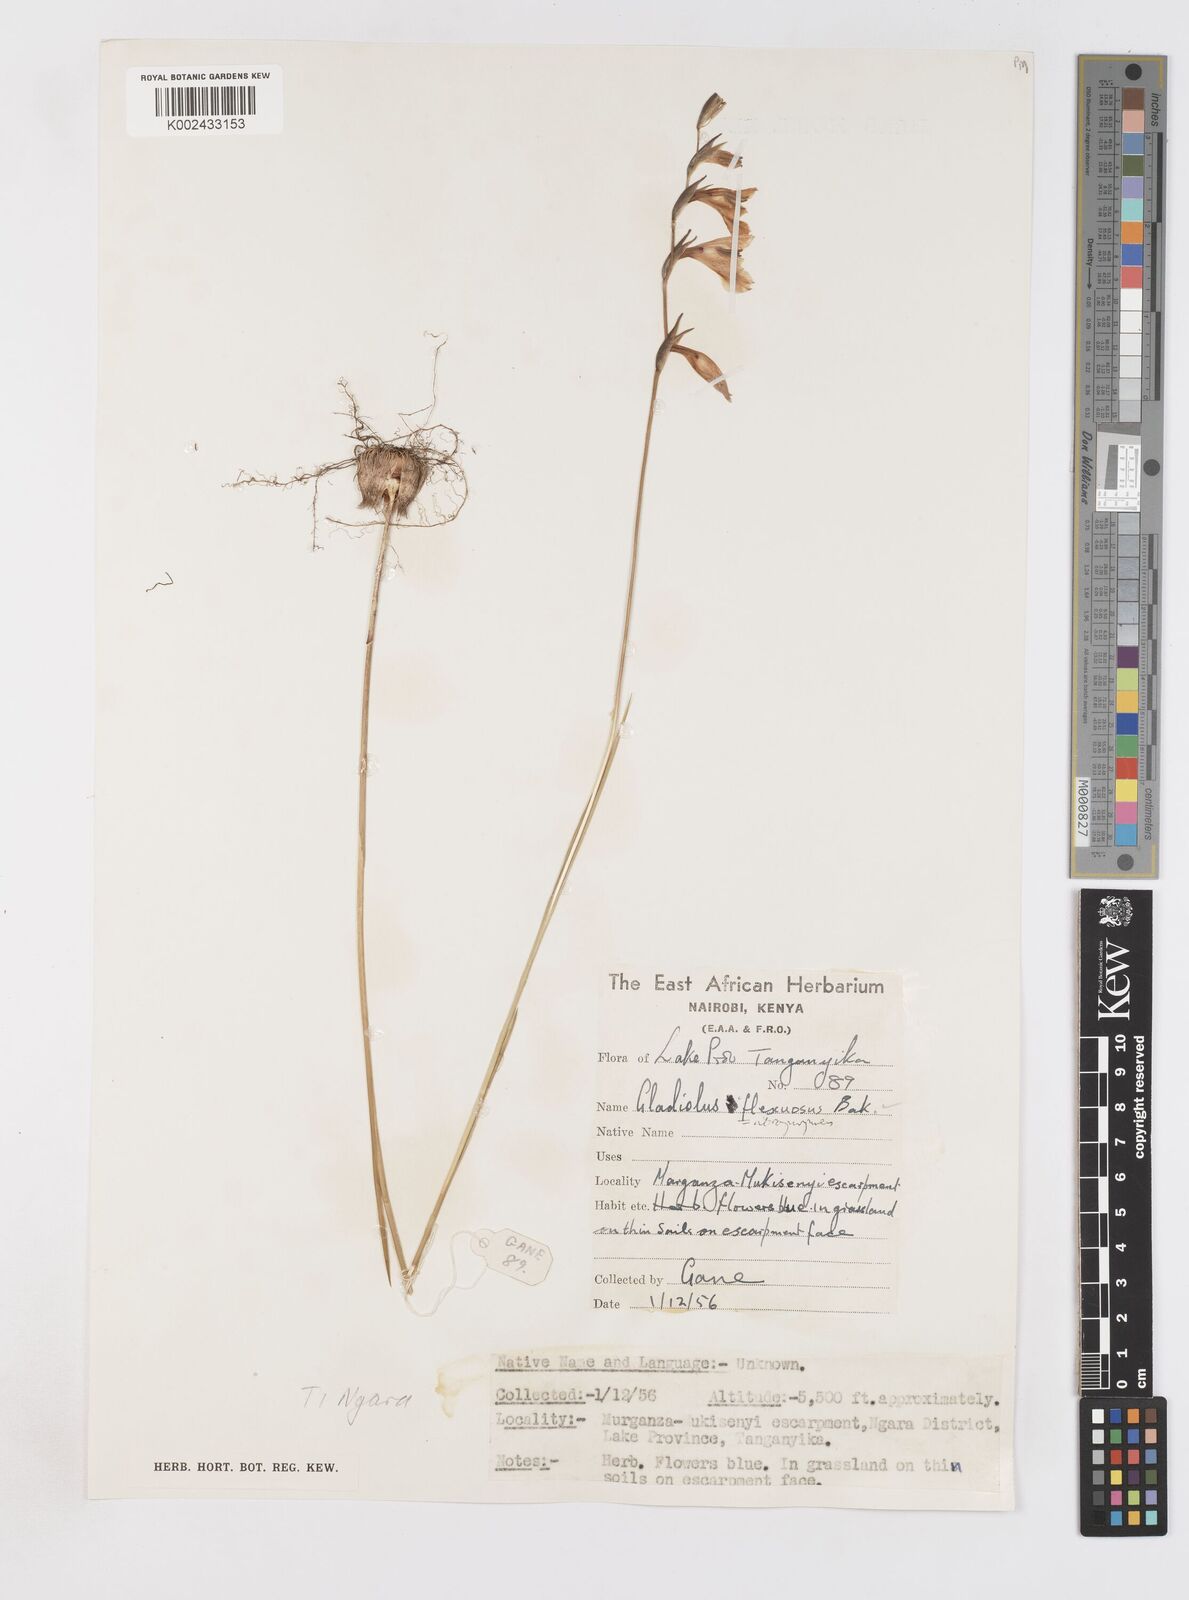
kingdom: Plantae
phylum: Tracheophyta
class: Liliopsida
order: Asparagales
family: Iridaceae
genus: Gladiolus
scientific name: Gladiolus atropurpureus
